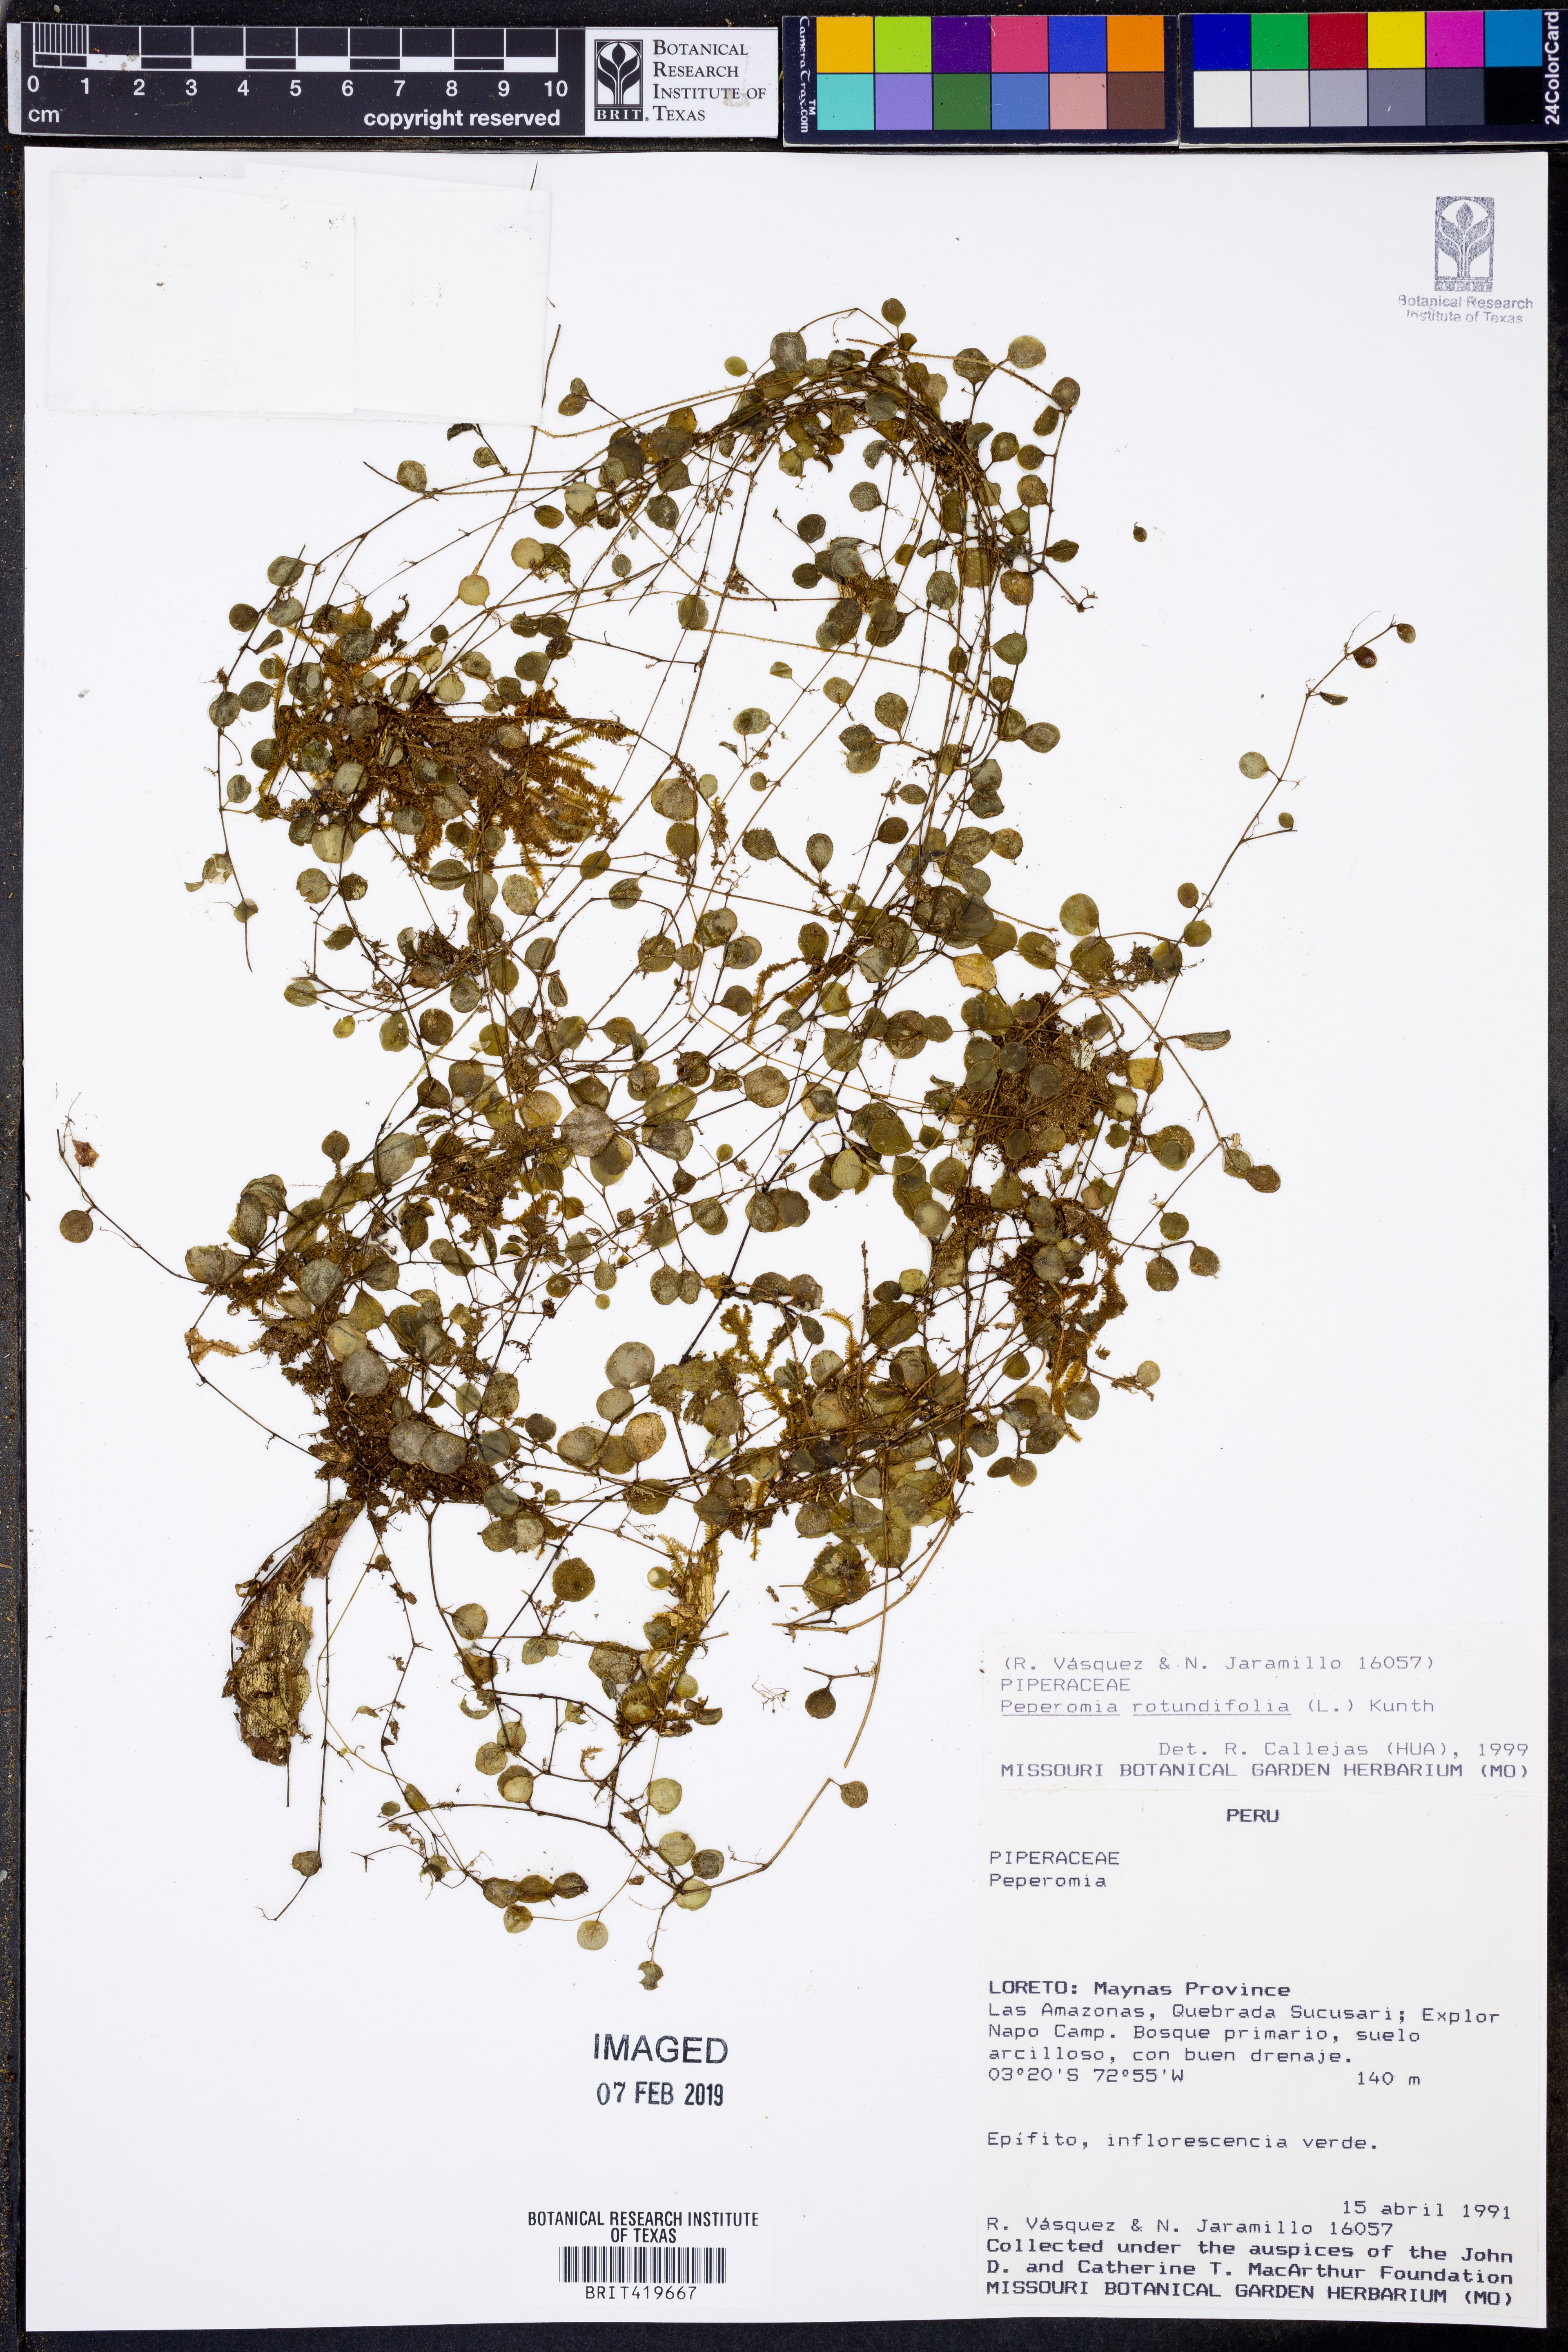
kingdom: Plantae
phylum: Tracheophyta
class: Magnoliopsida
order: Piperales
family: Piperaceae
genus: Peperomia
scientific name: Peperomia rotundifolia
